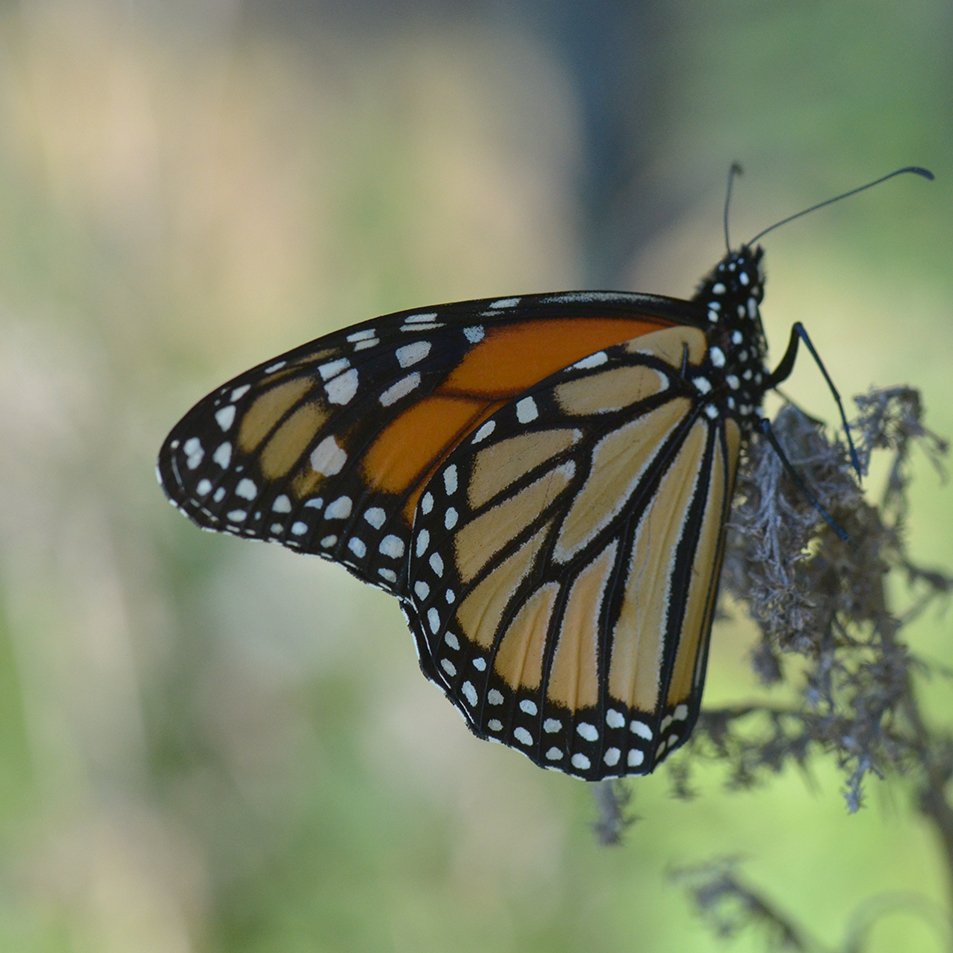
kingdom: Animalia
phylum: Arthropoda
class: Insecta
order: Lepidoptera
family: Nymphalidae
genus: Danaus
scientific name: Danaus plexippus
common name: Monarch
